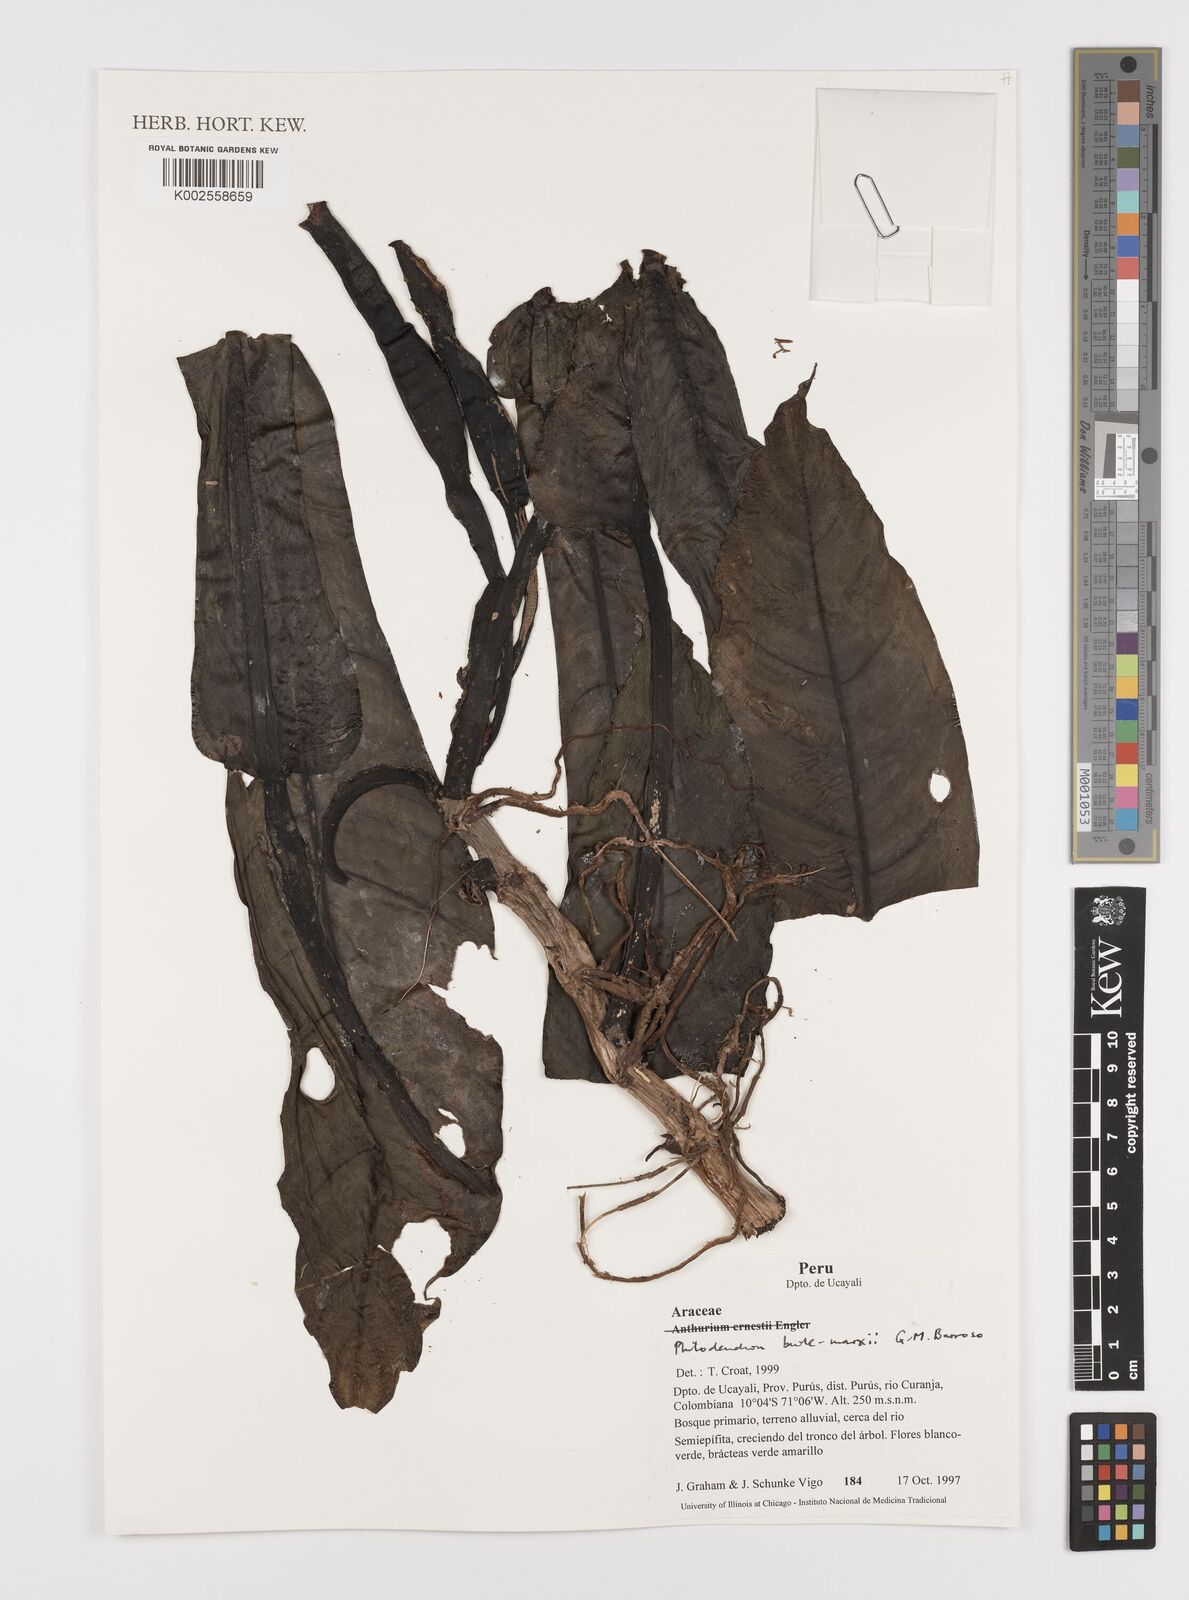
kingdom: Plantae
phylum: Tracheophyta
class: Liliopsida
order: Alismatales
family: Araceae
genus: Philodendron
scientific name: Philodendron burle-marxii
